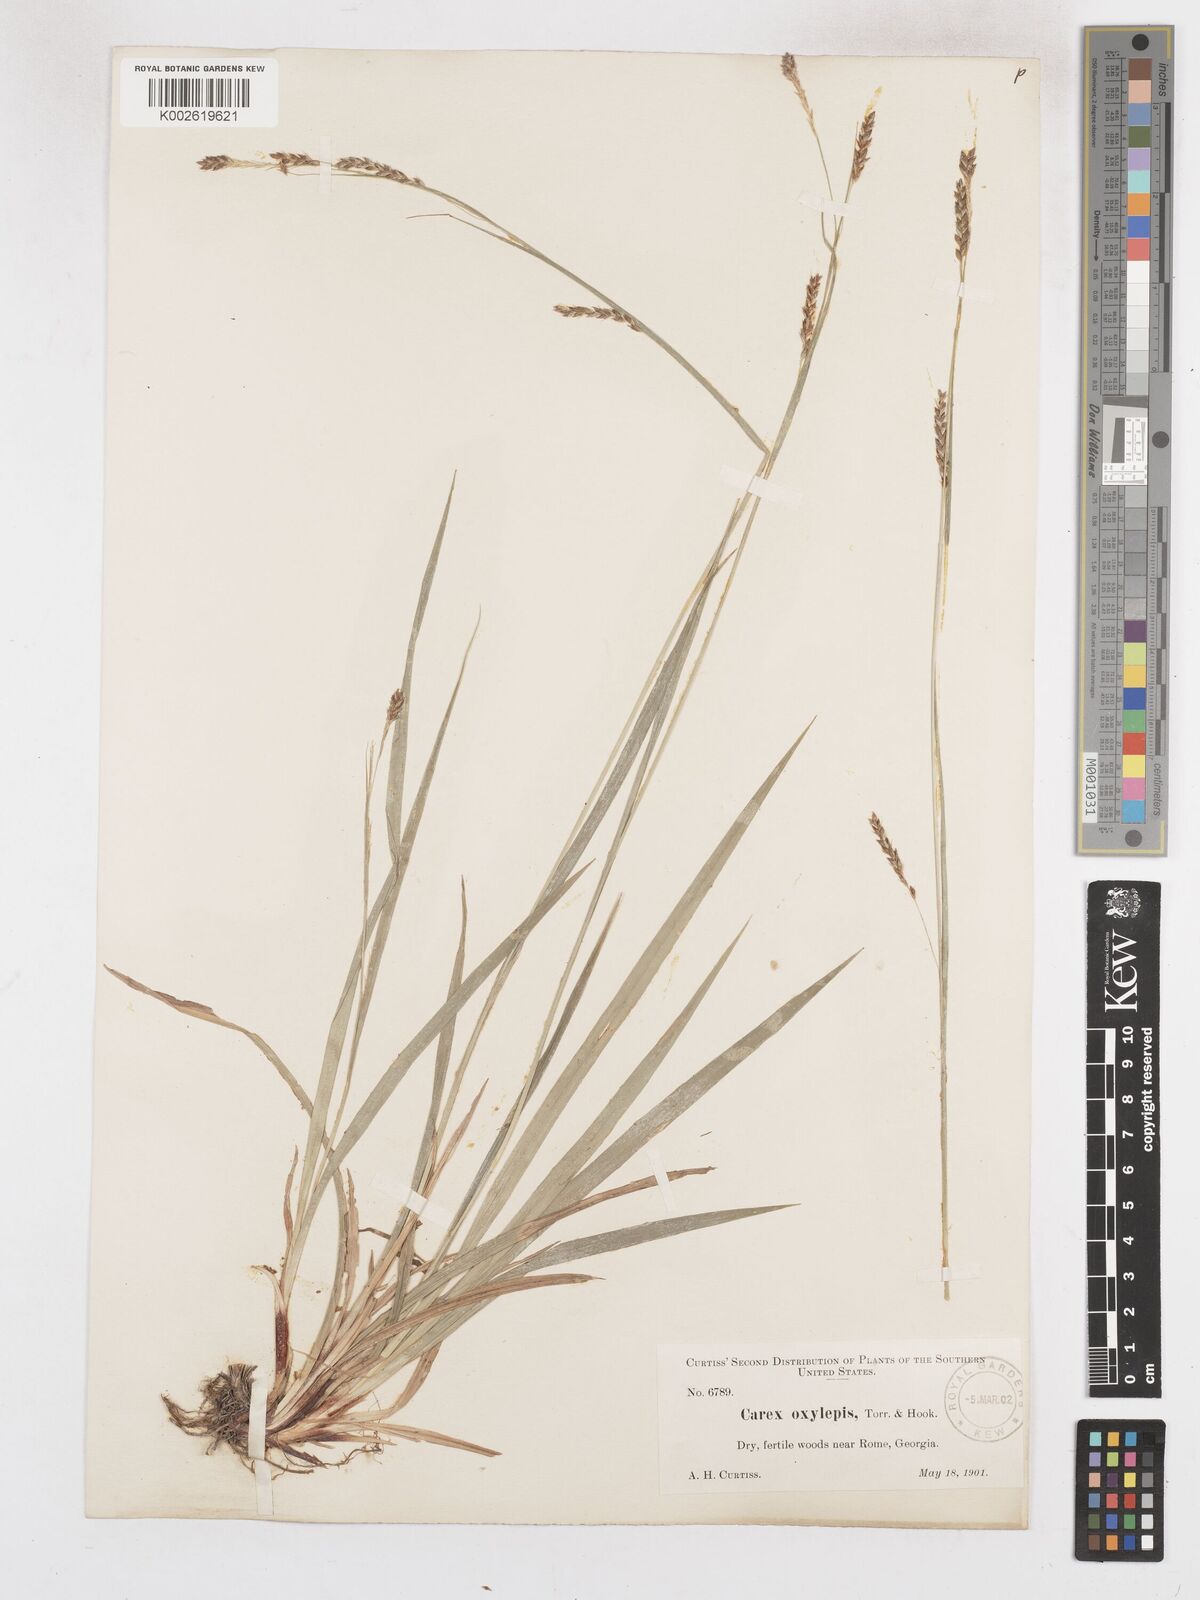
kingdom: Plantae
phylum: Tracheophyta
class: Liliopsida
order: Poales
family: Cyperaceae
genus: Carex
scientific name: Carex oxylepis
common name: Sharpscale sedge
